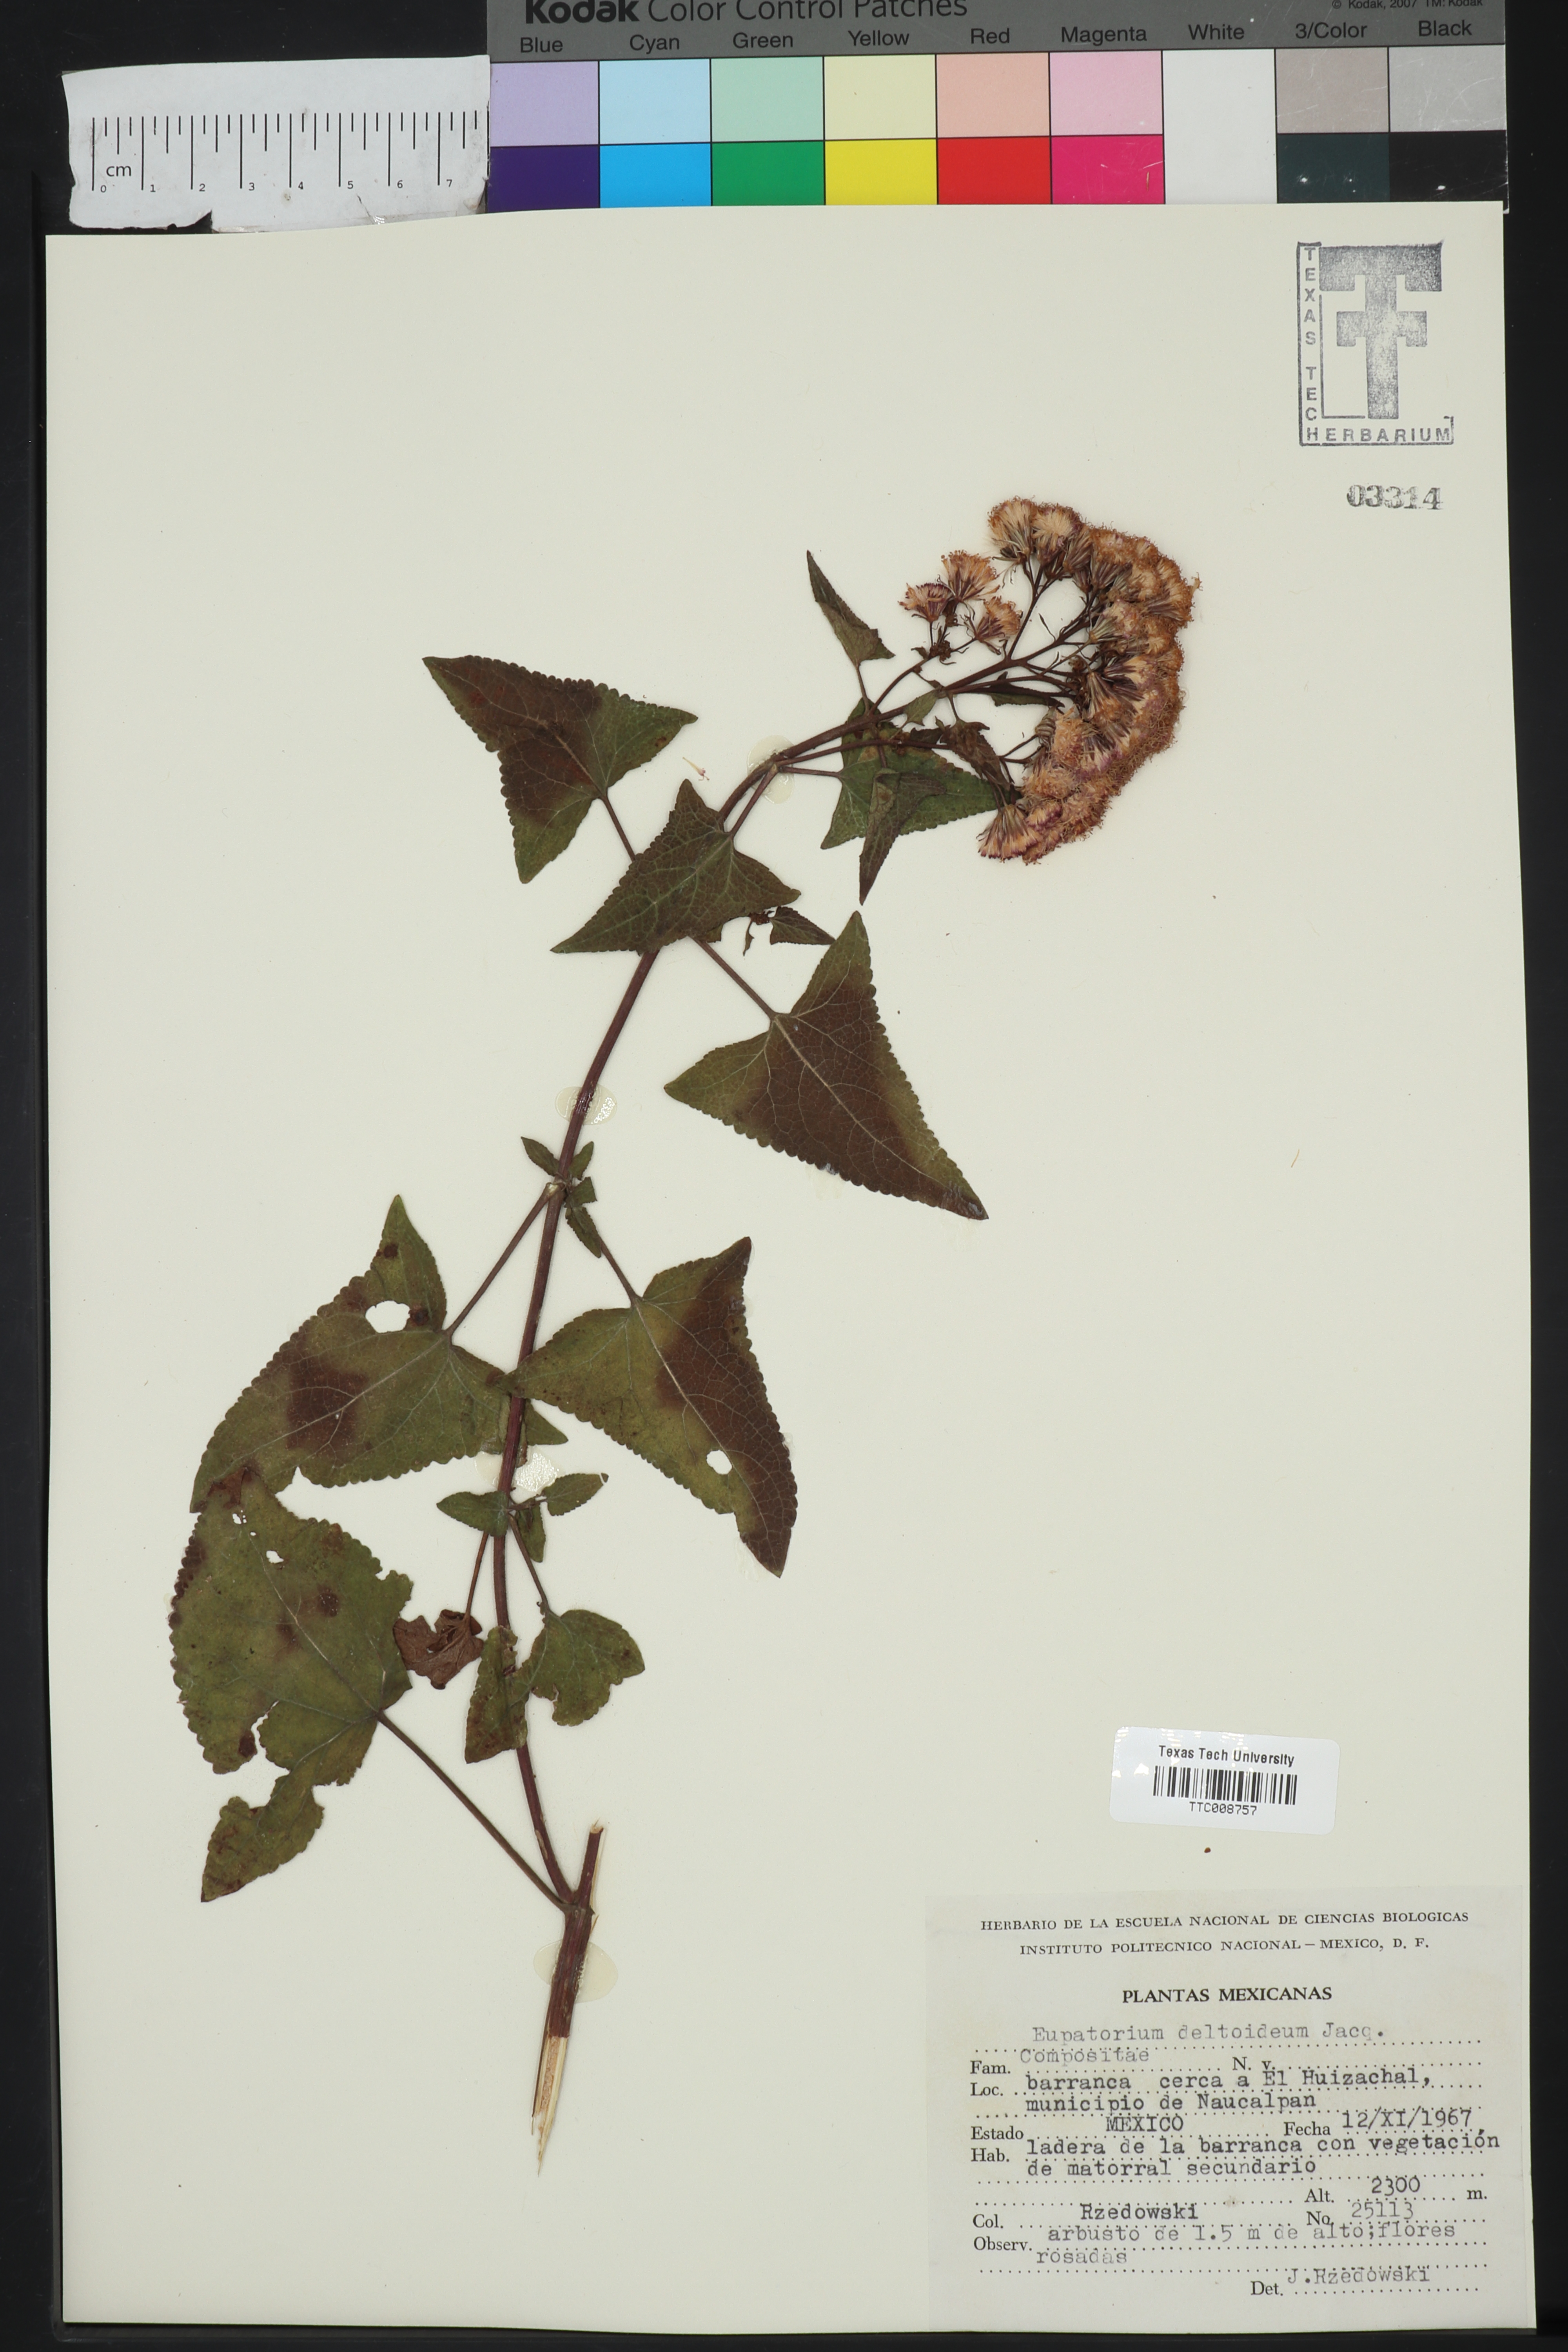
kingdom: Plantae
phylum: Tracheophyta
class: Magnoliopsida
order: Asterales
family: Asteraceae
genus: Koanophyllon
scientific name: Koanophyllon villosum
